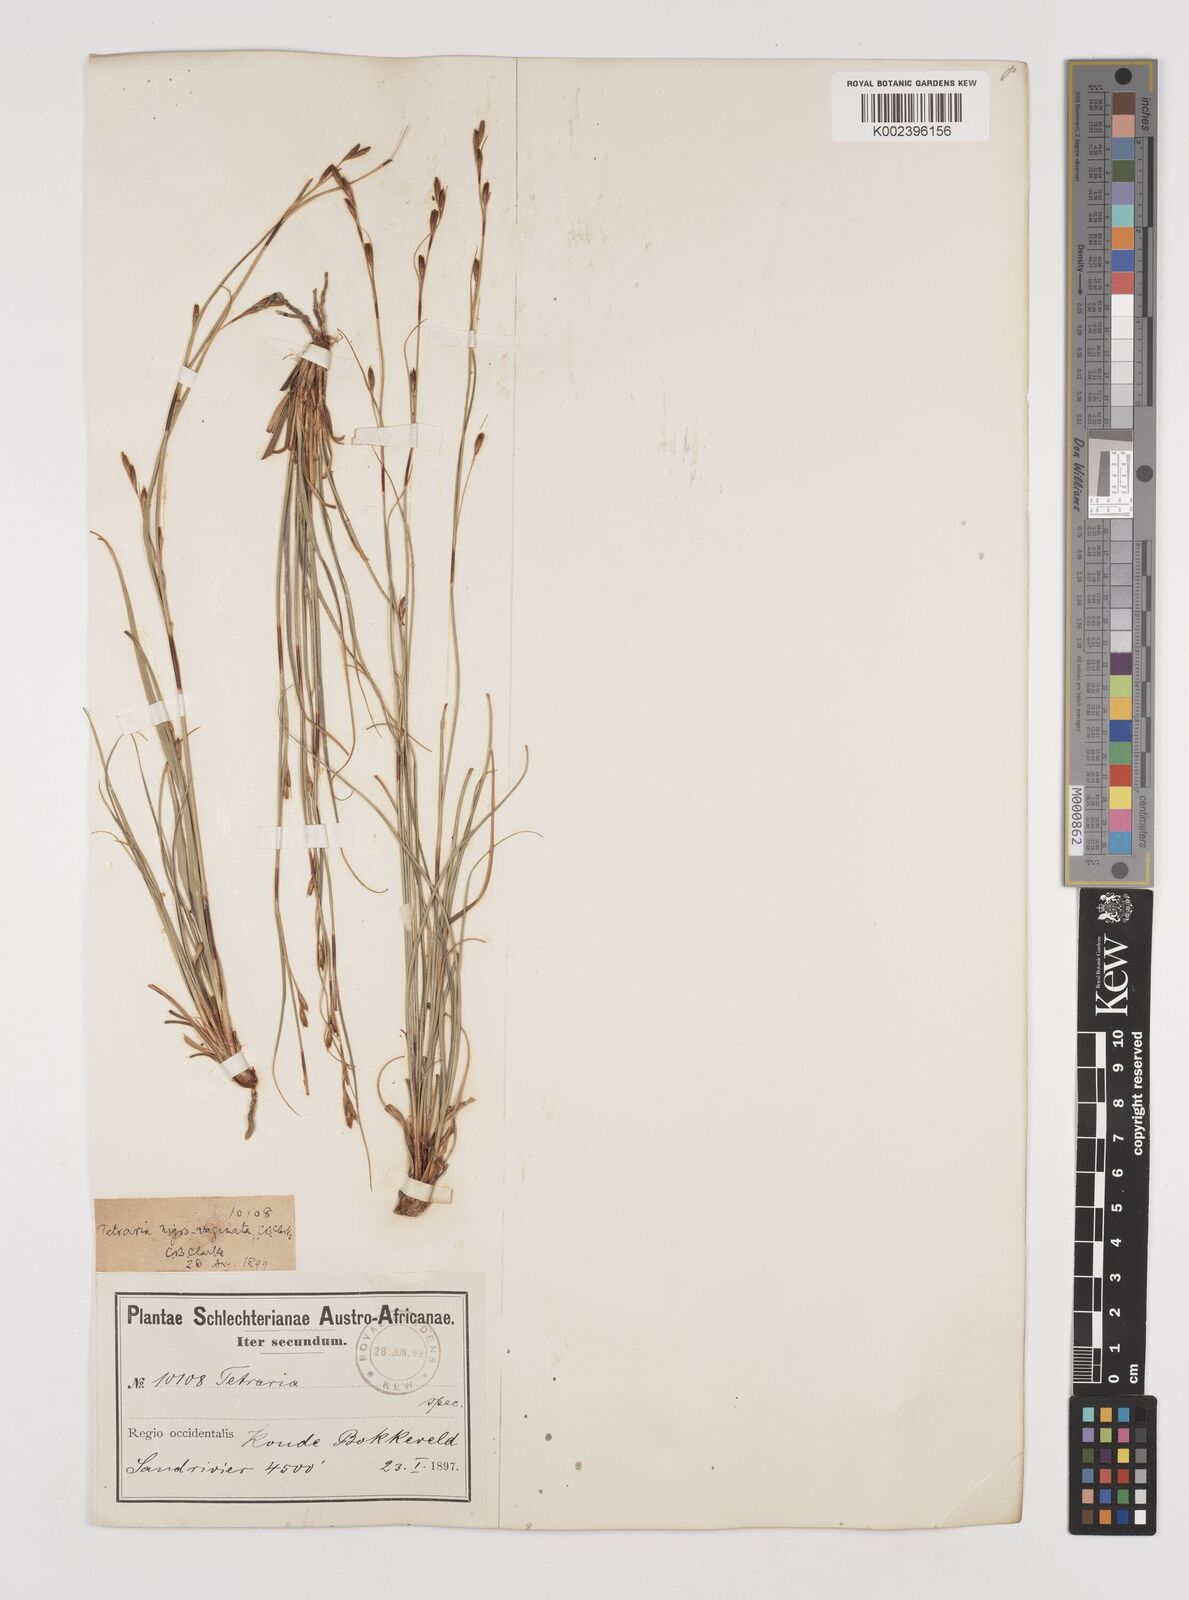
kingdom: Plantae
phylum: Tracheophyta
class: Liliopsida
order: Poales
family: Cyperaceae
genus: Tetraria
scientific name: Tetraria nigrovaginata
